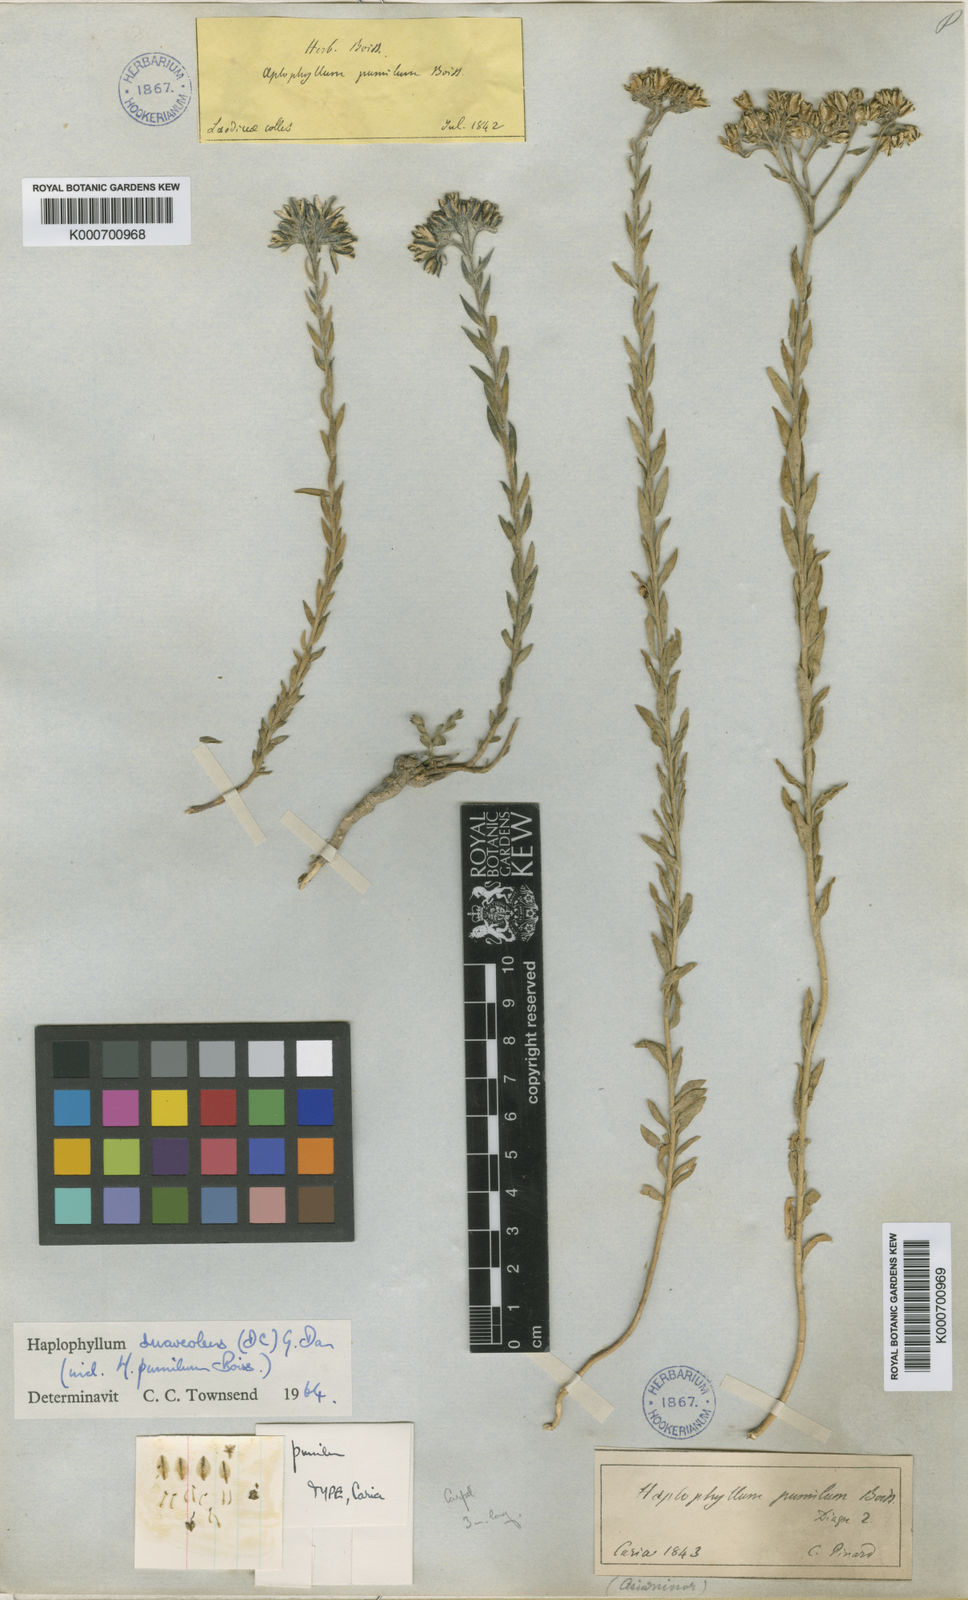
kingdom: Plantae
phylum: Tracheophyta
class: Magnoliopsida
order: Sapindales
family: Rutaceae
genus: Haplophyllum
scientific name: Haplophyllum suaveolens
